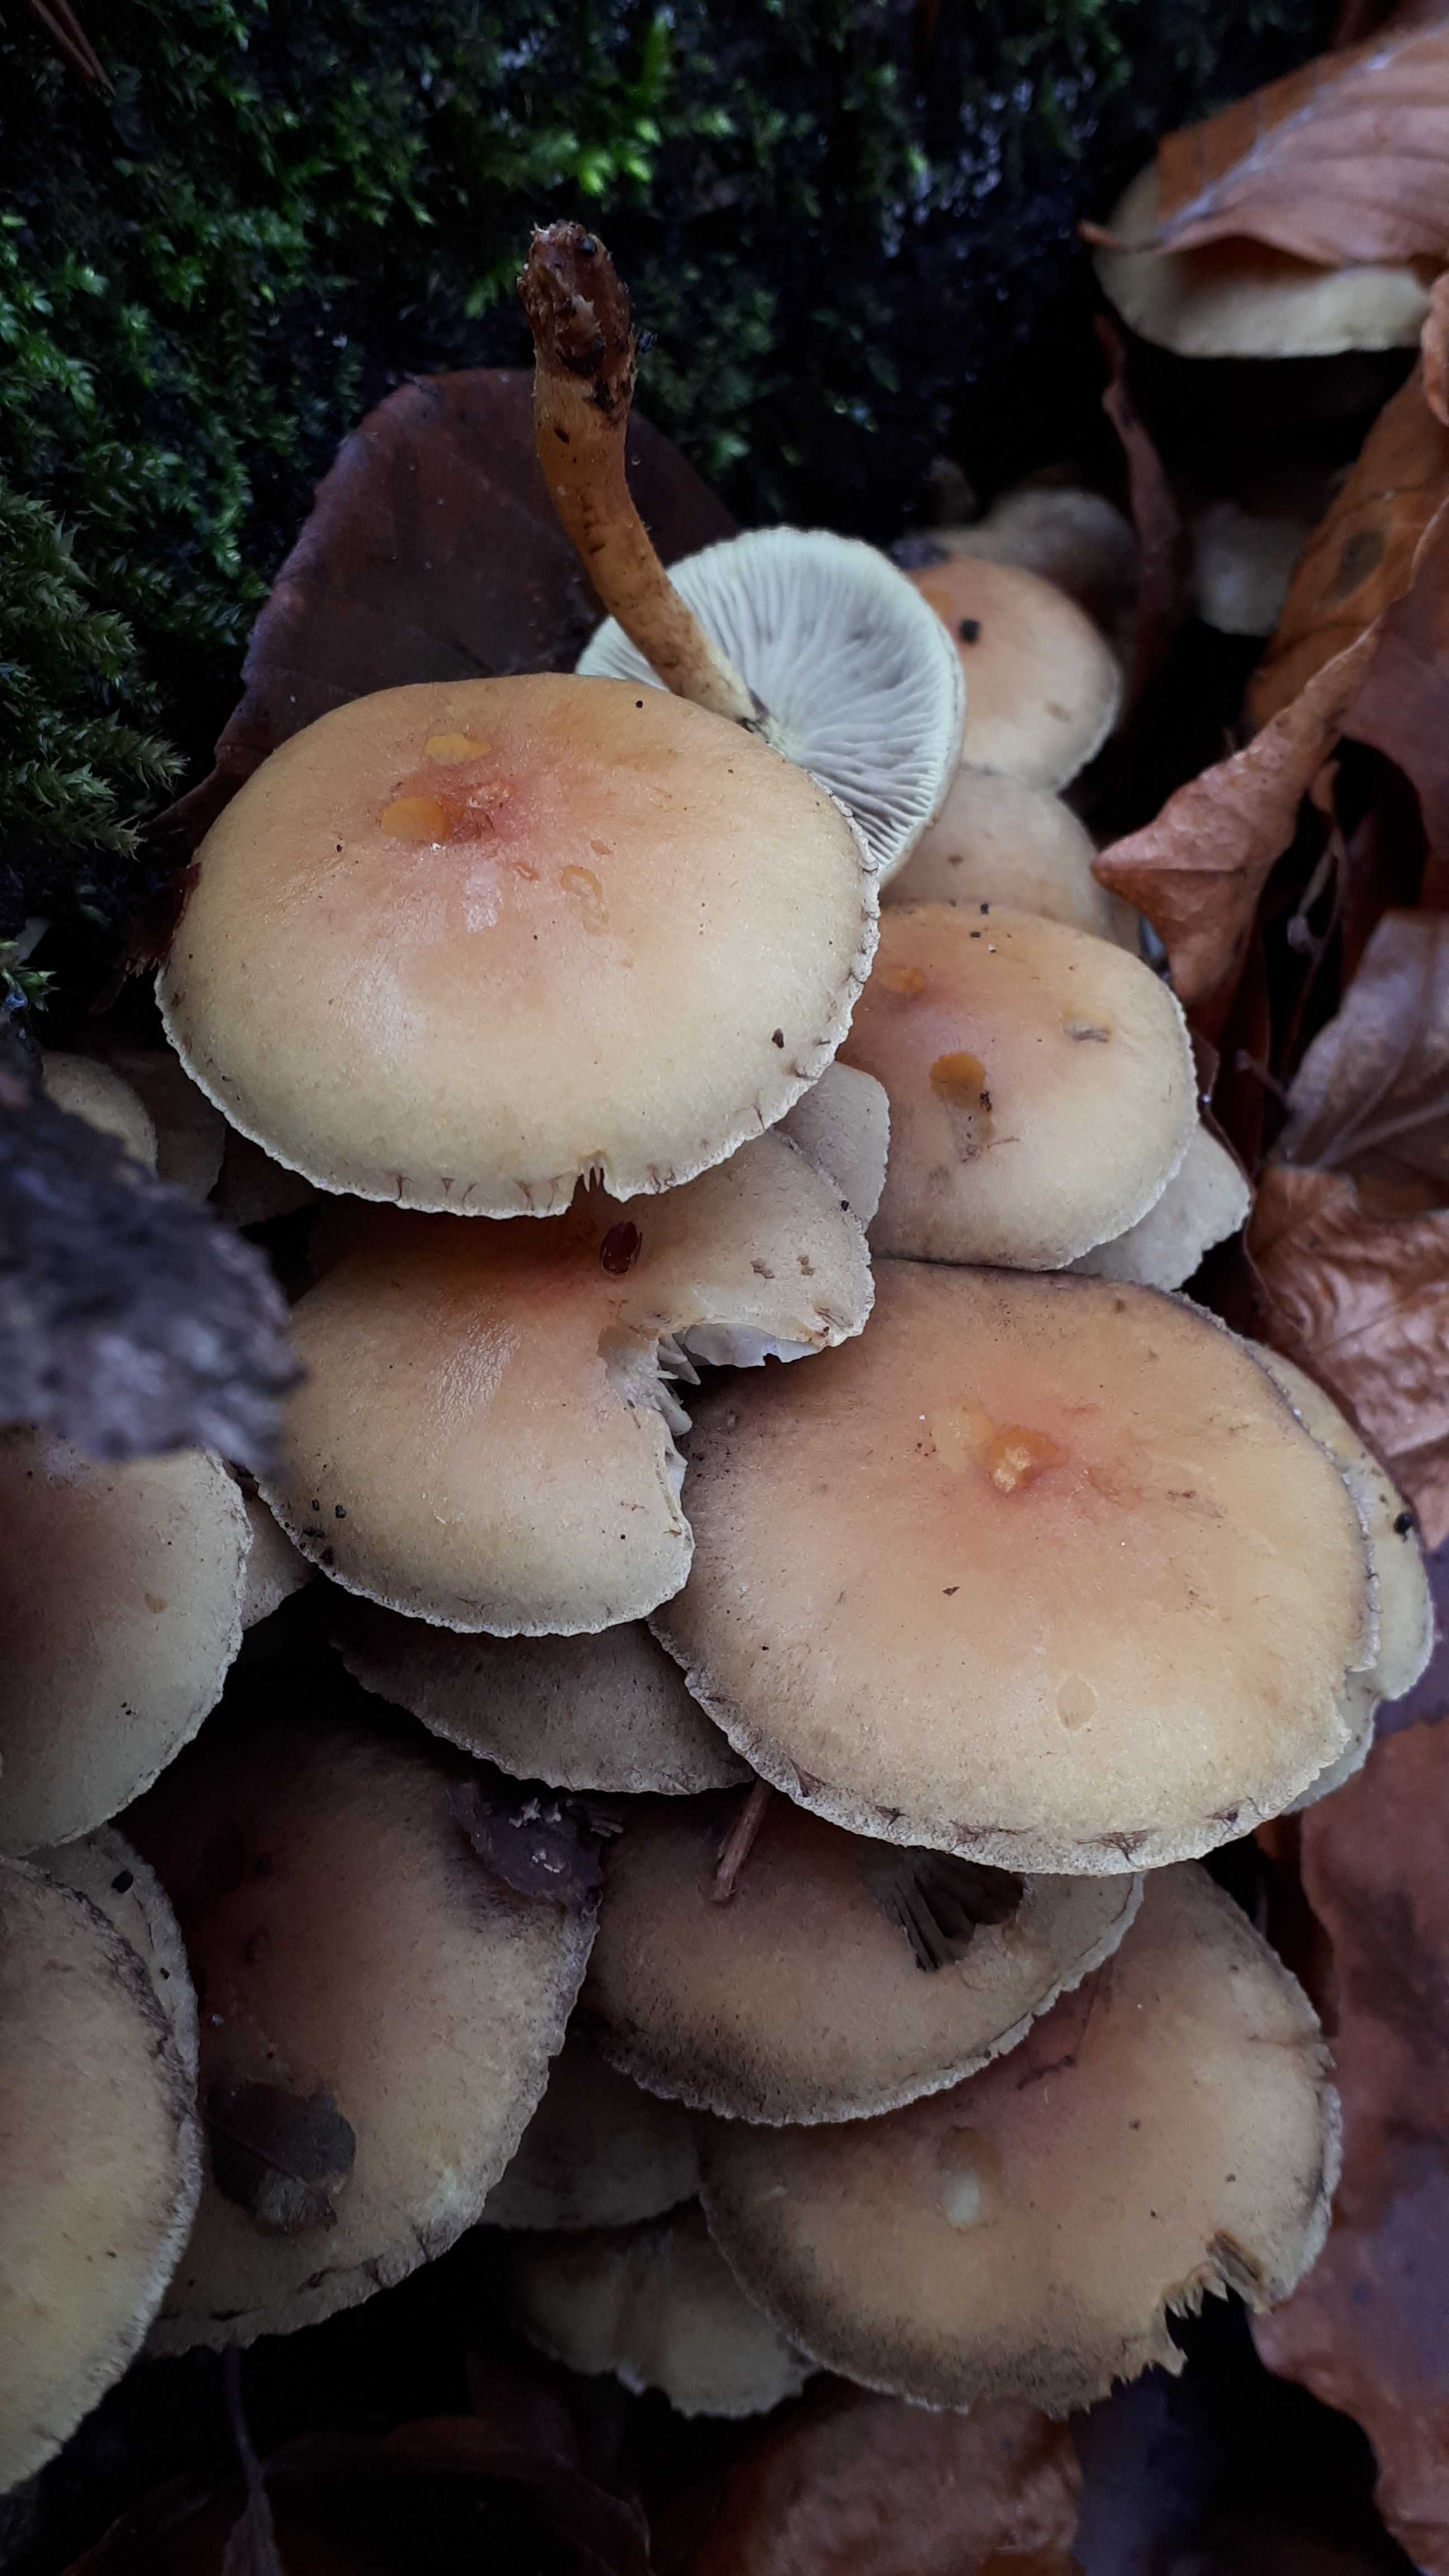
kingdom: Fungi
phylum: Basidiomycota
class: Agaricomycetes
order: Agaricales
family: Strophariaceae
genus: Hypholoma
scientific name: Hypholoma fasciculare
